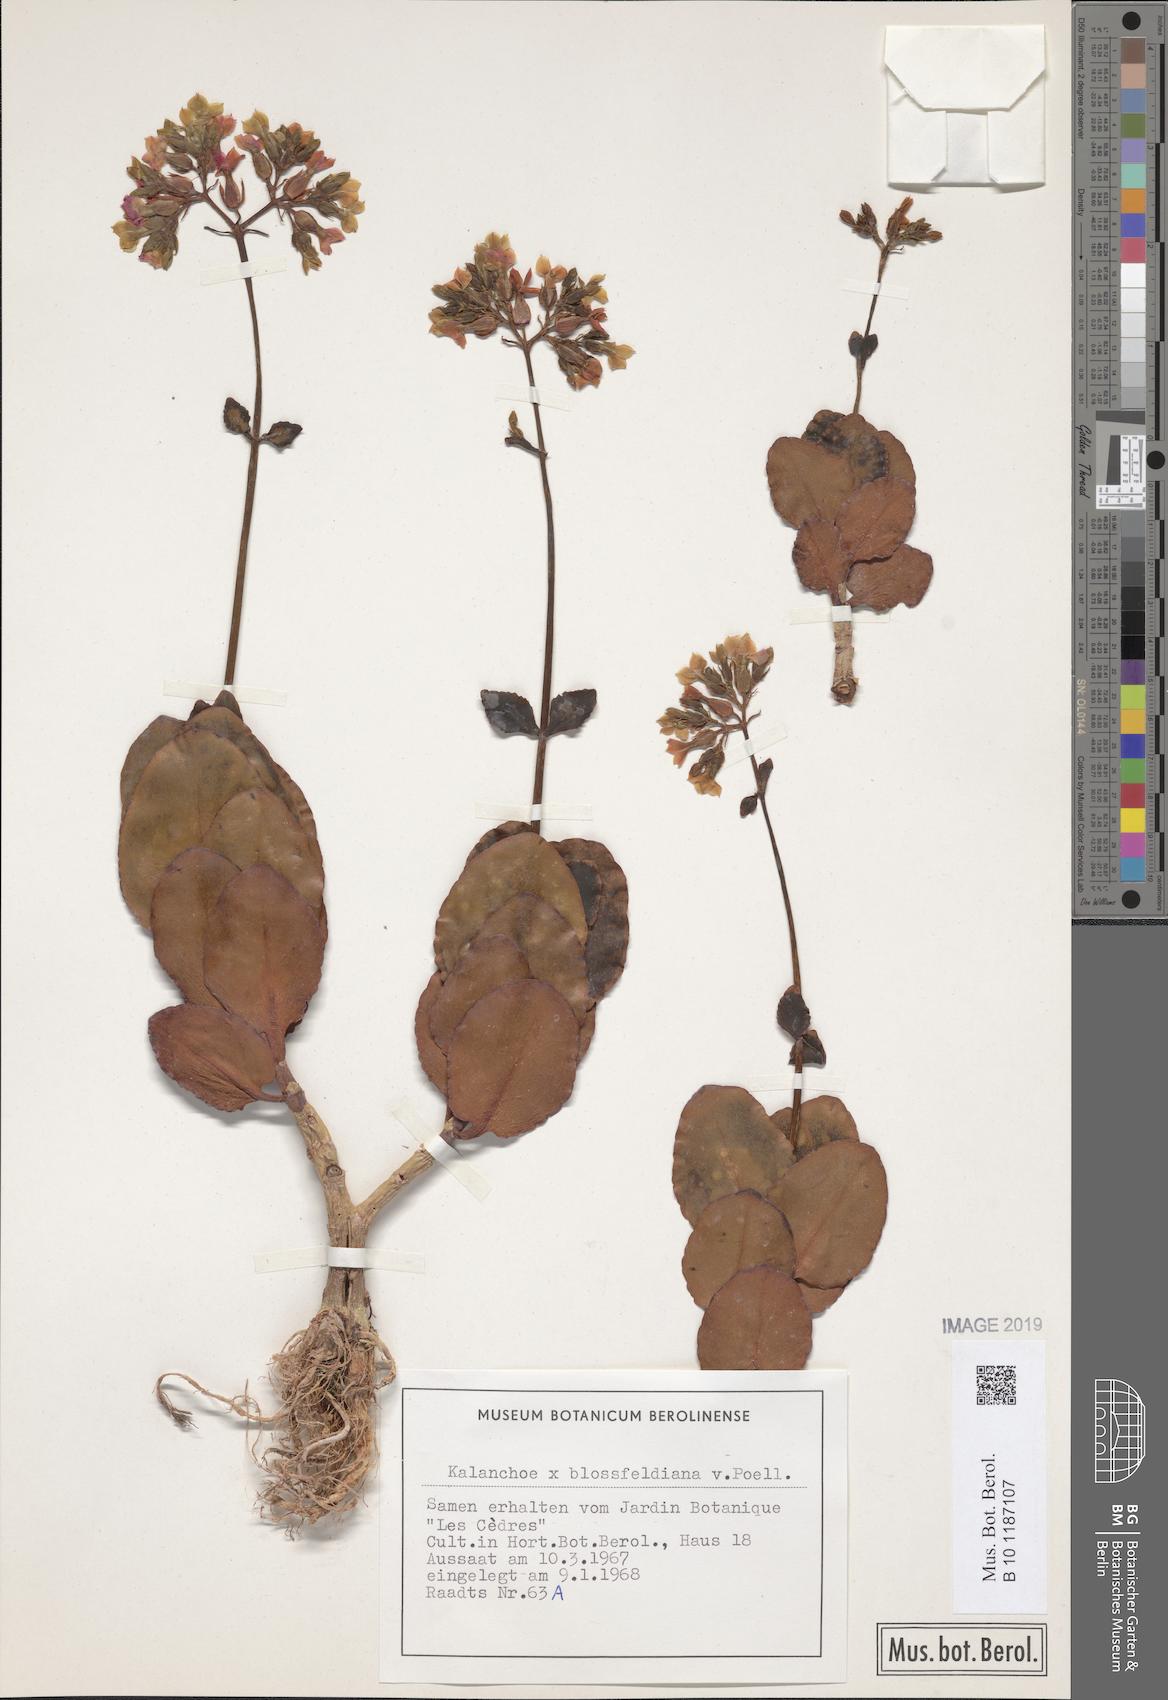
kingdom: Plantae
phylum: Tracheophyta
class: Magnoliopsida
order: Saxifragales
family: Crassulaceae
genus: Kalanchoe
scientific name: Kalanchoe
